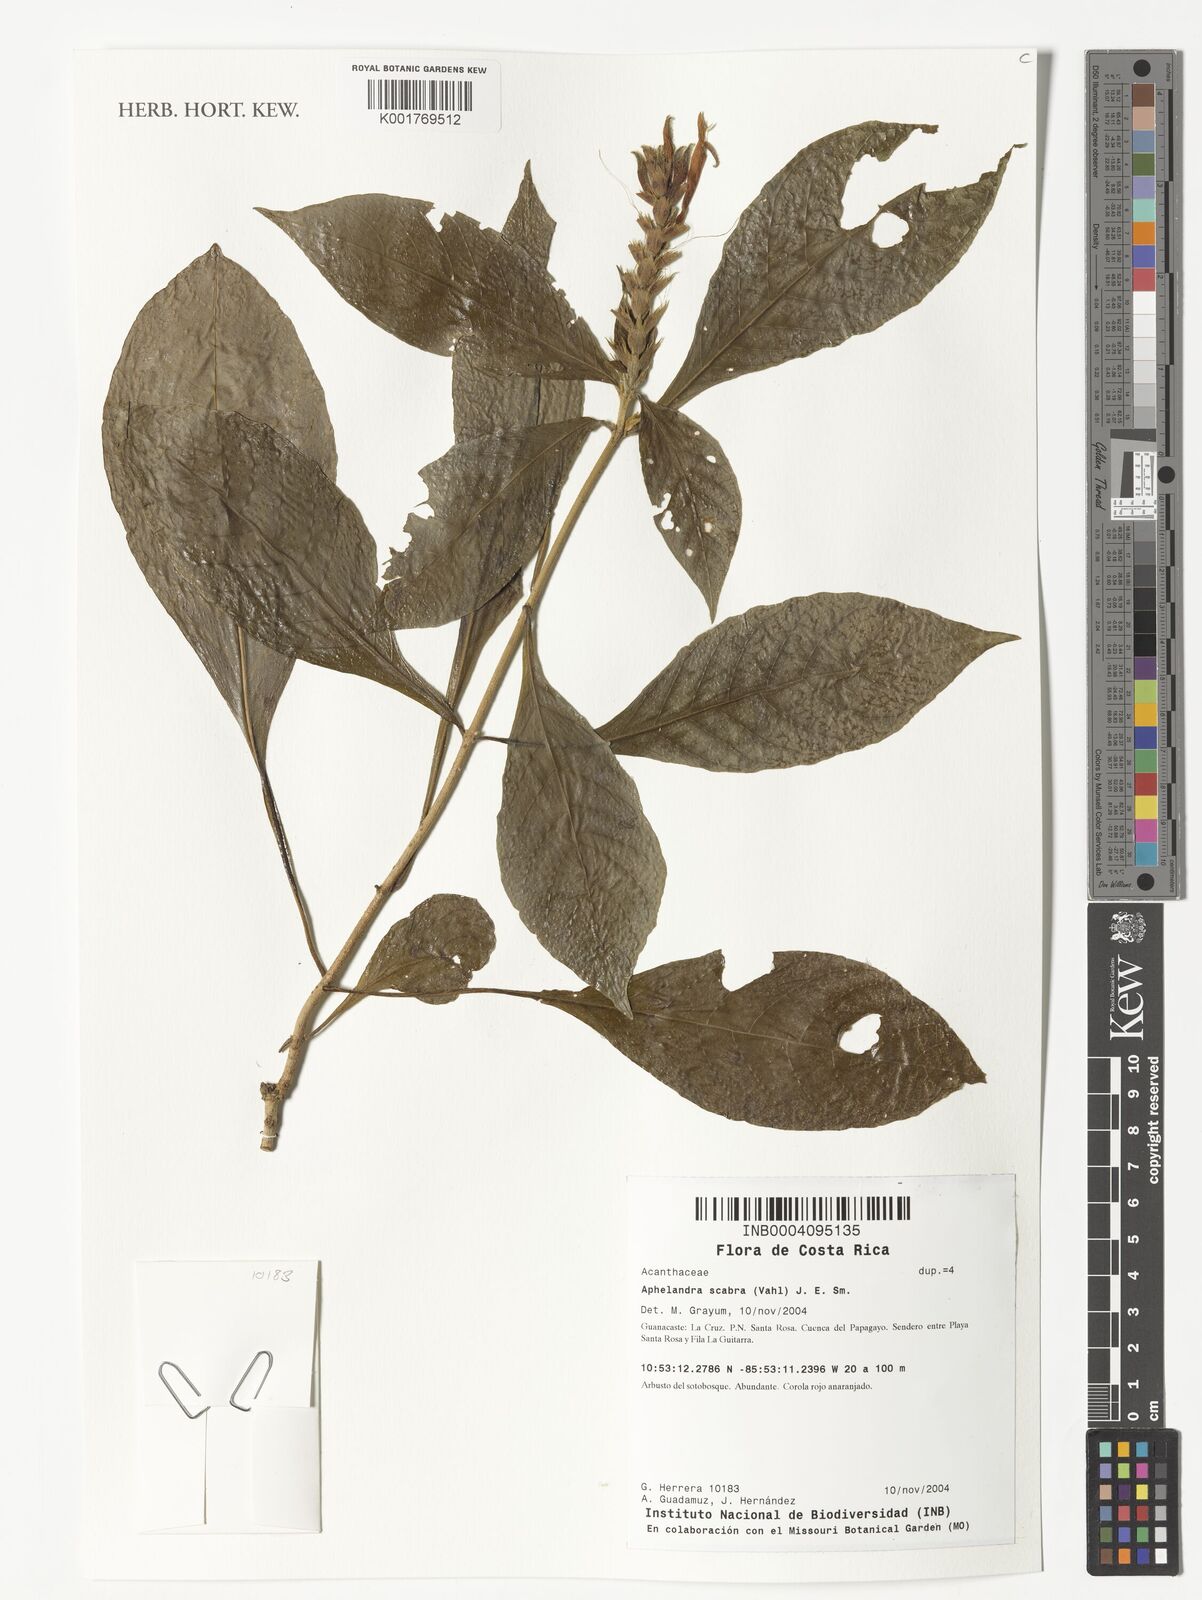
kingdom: Plantae
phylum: Tracheophyta
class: Magnoliopsida
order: Lamiales
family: Acanthaceae
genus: Aphelandra
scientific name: Aphelandra scabra
